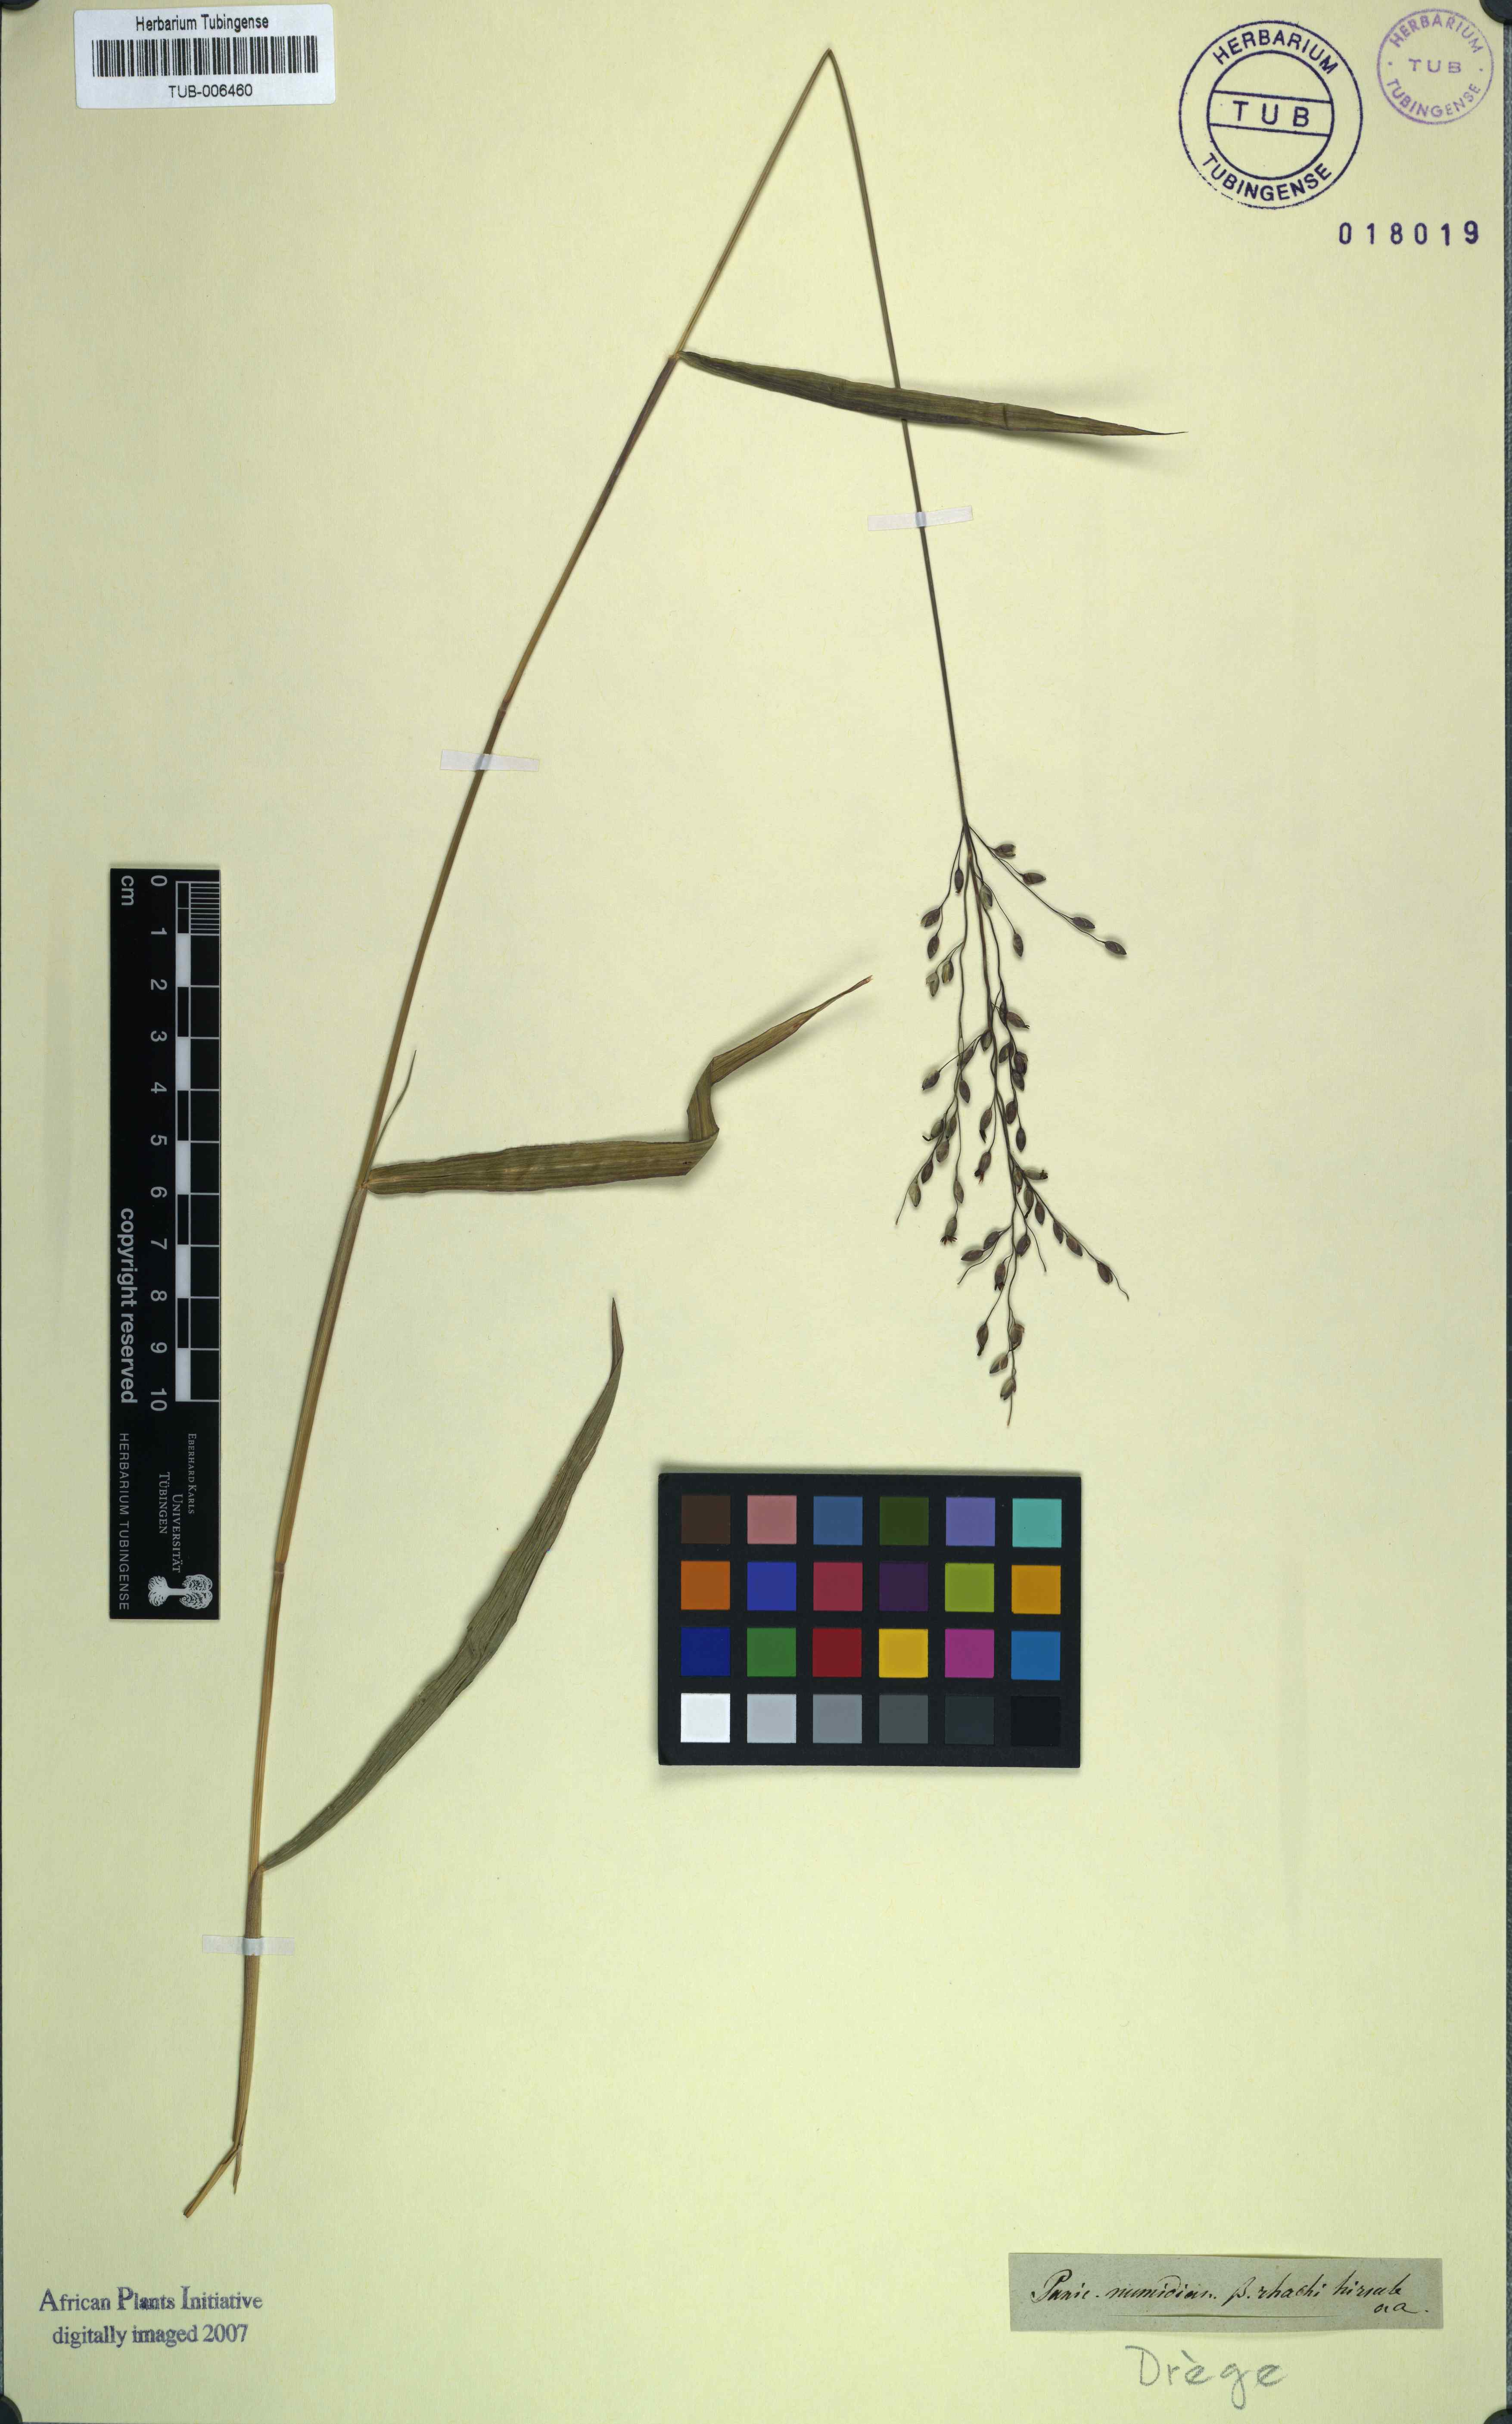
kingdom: Plantae
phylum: Tracheophyta
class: Liliopsida
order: Poales
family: Poaceae
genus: Urochloa
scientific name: Urochloa mutica
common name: Para grass
